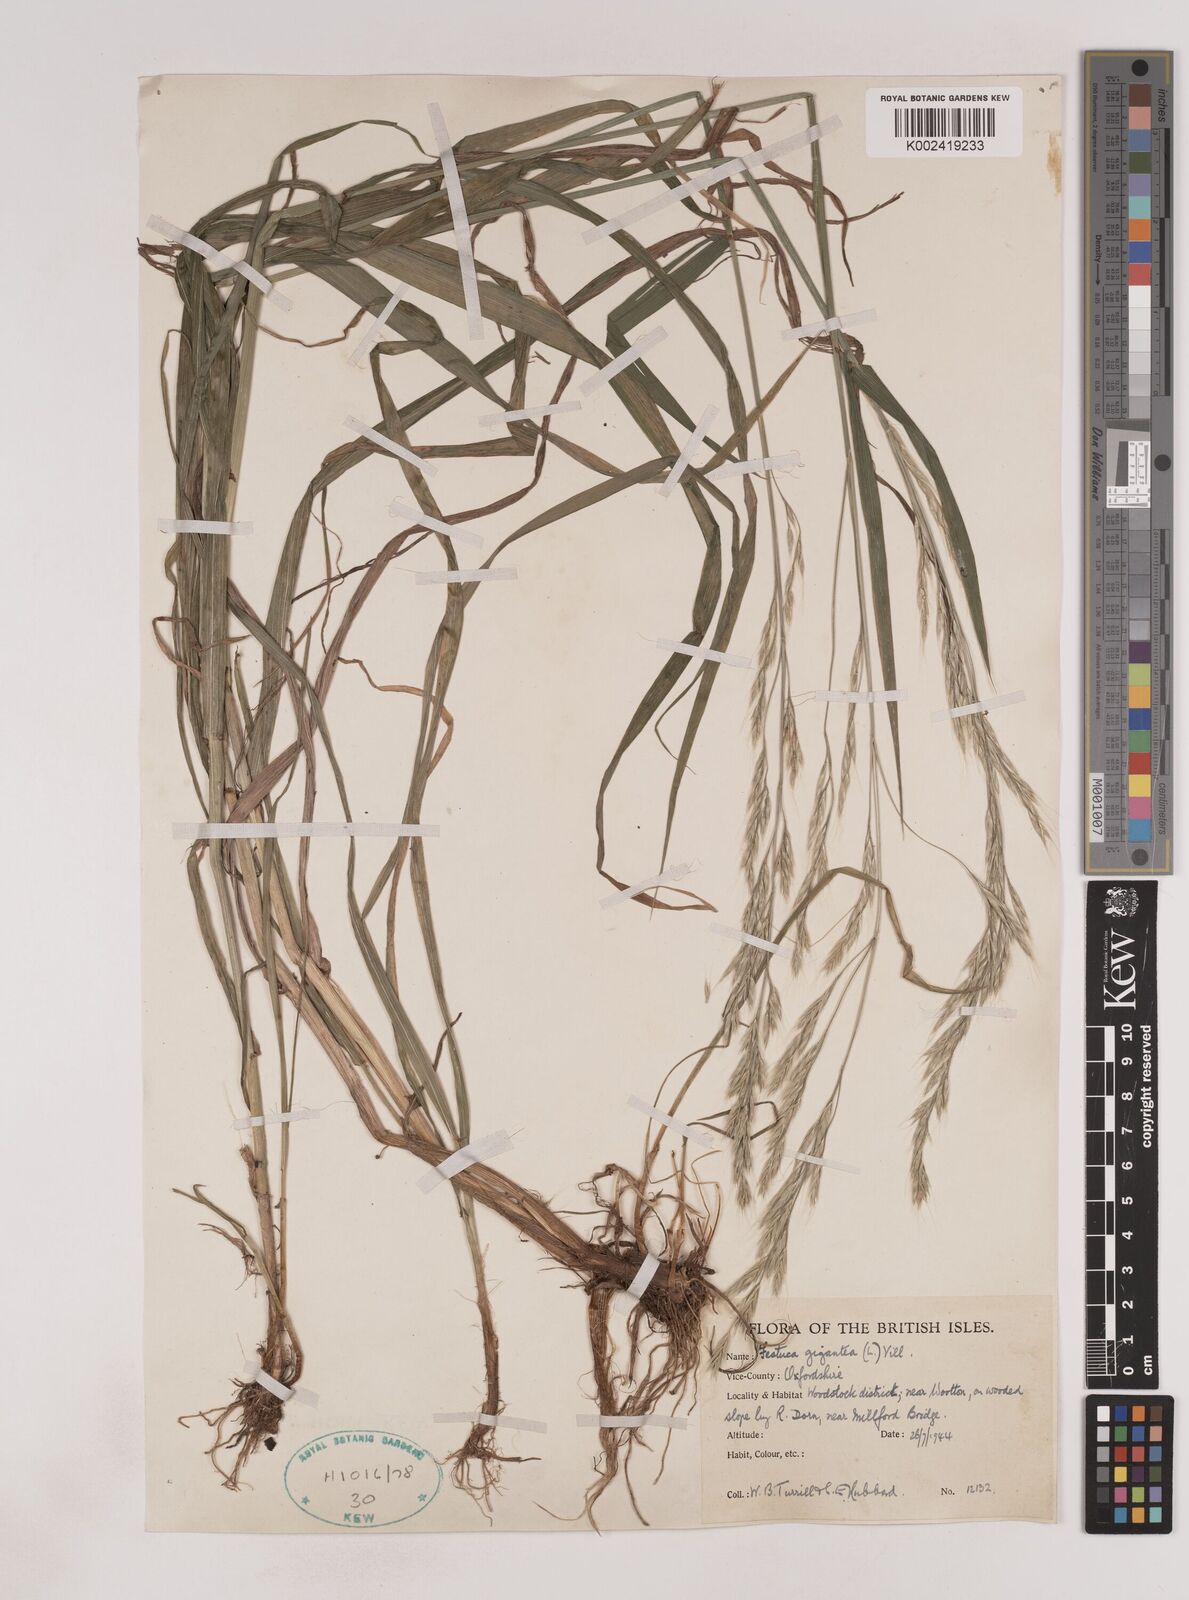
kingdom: Plantae
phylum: Tracheophyta
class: Liliopsida
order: Poales
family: Poaceae
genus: Lolium
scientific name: Lolium giganteum
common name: Giant fescue
